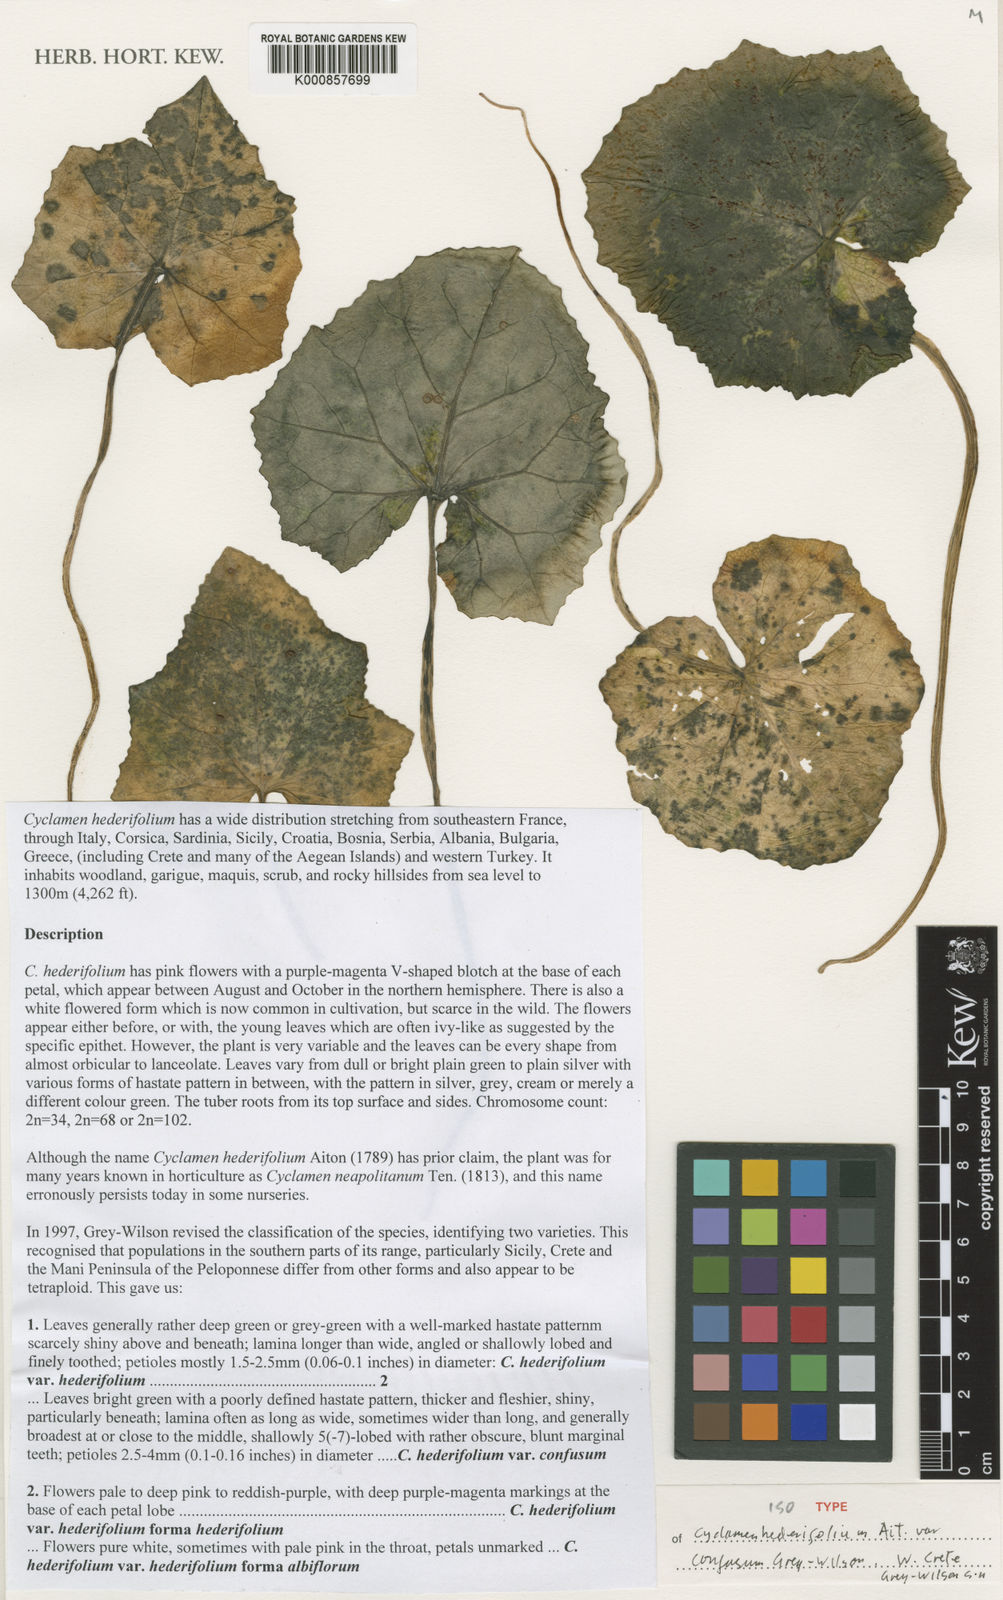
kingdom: Plantae
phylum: Tracheophyta
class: Magnoliopsida
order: Ericales
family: Primulaceae
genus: Cyclamen
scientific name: Cyclamen hederifolium
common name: Sowbread
